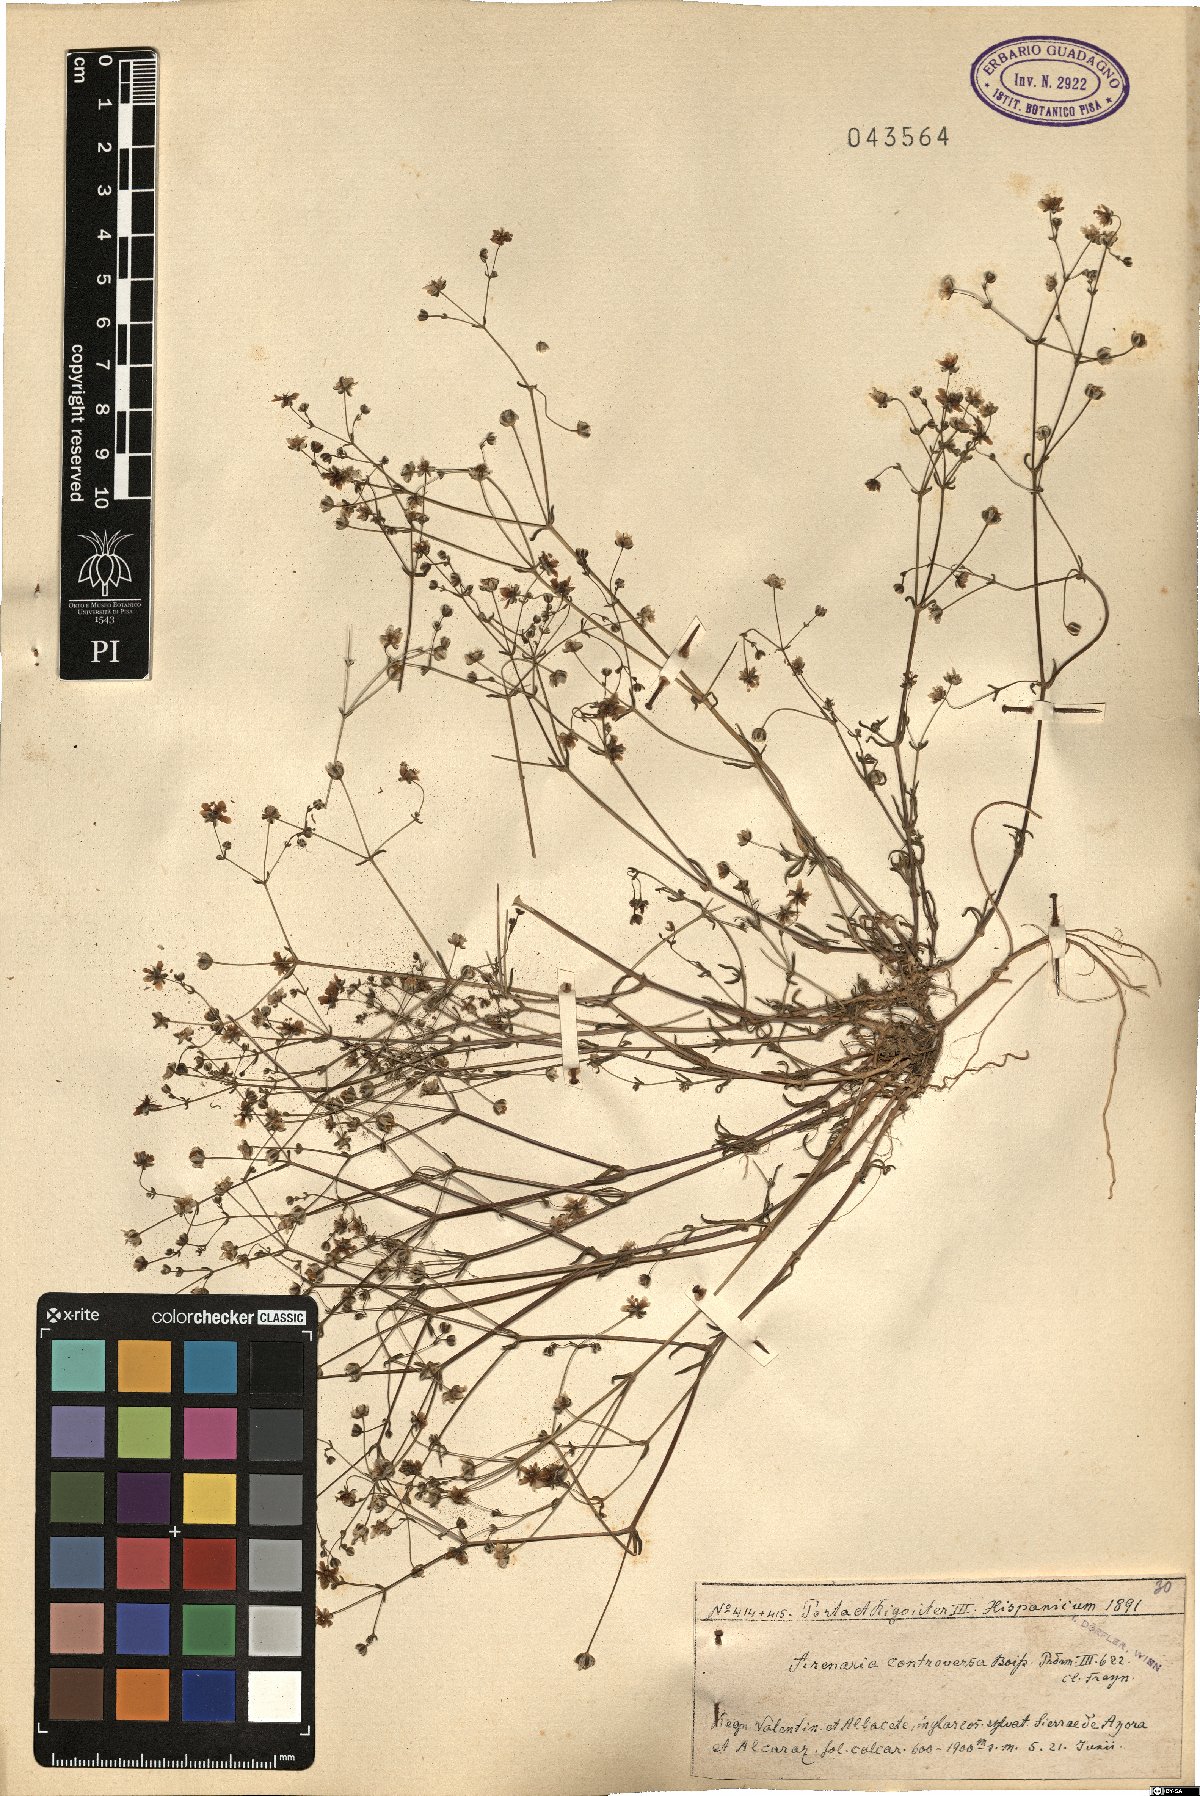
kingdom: Plantae
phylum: Tracheophyta
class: Magnoliopsida
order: Caryophyllales
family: Caryophyllaceae
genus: Arenaria
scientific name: Arenaria controversa
